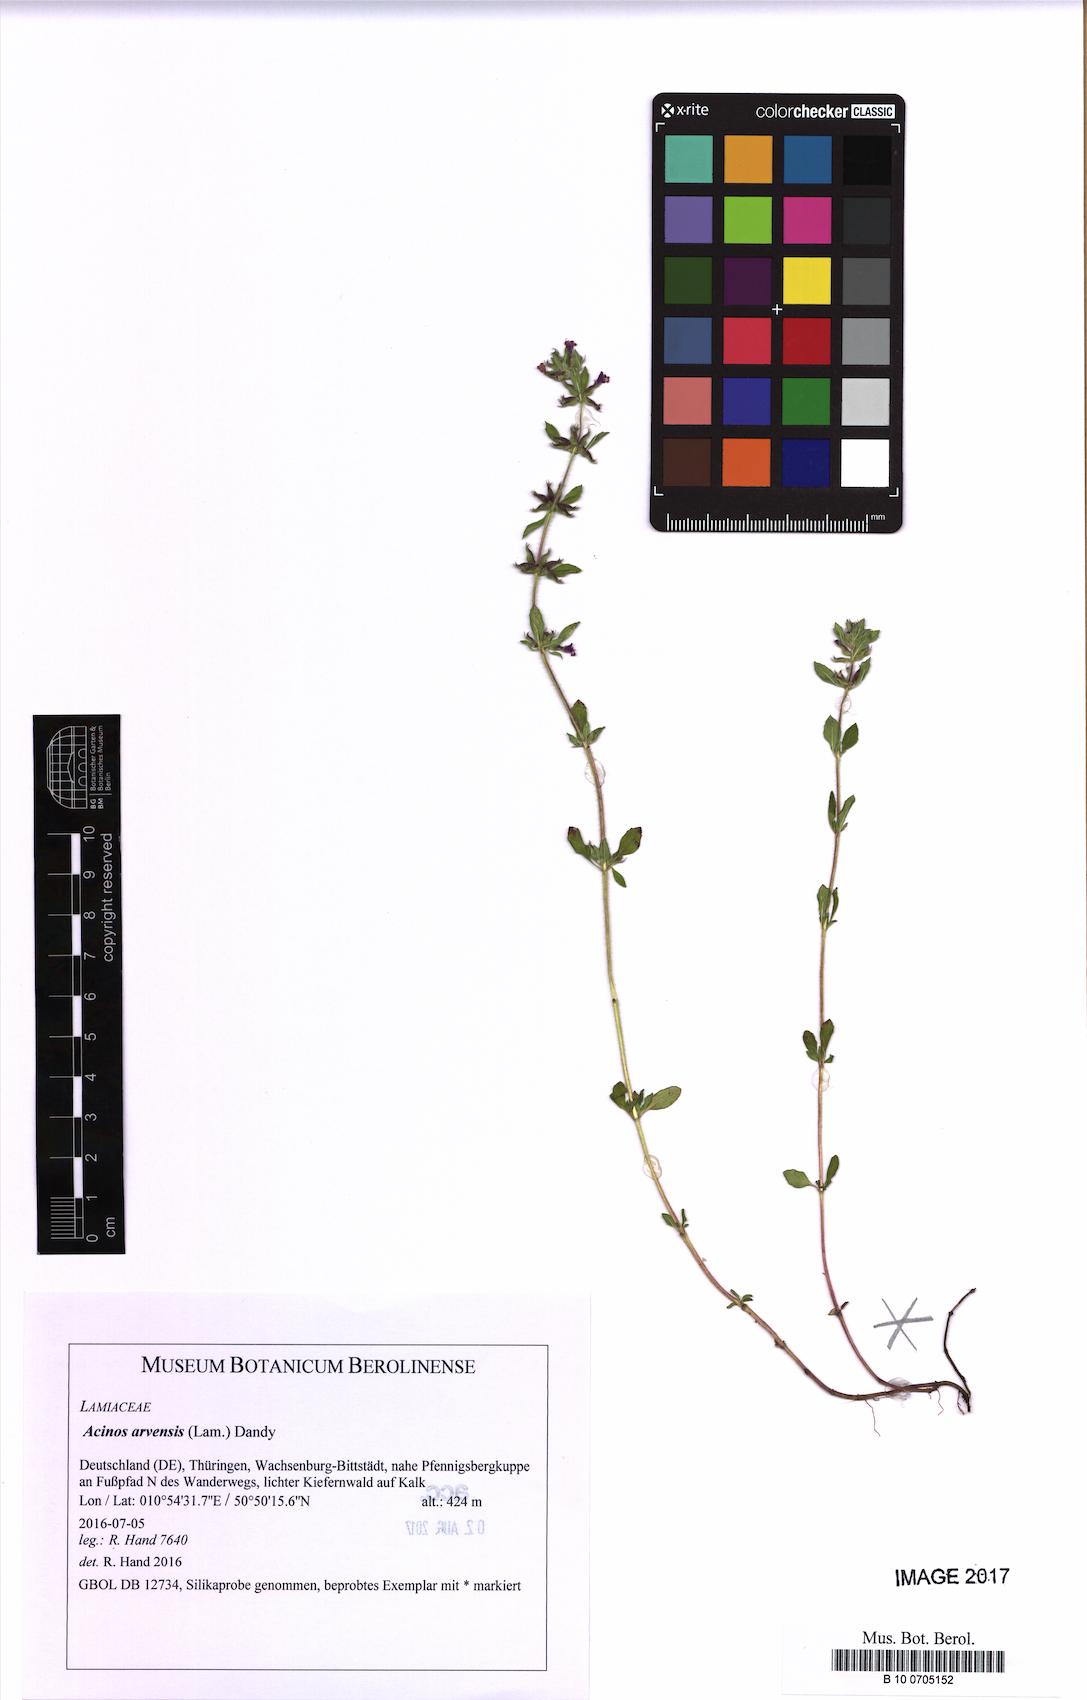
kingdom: Plantae
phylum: Tracheophyta
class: Magnoliopsida
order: Lamiales
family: Lamiaceae
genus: Clinopodium
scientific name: Clinopodium acinos
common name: Basil thyme
